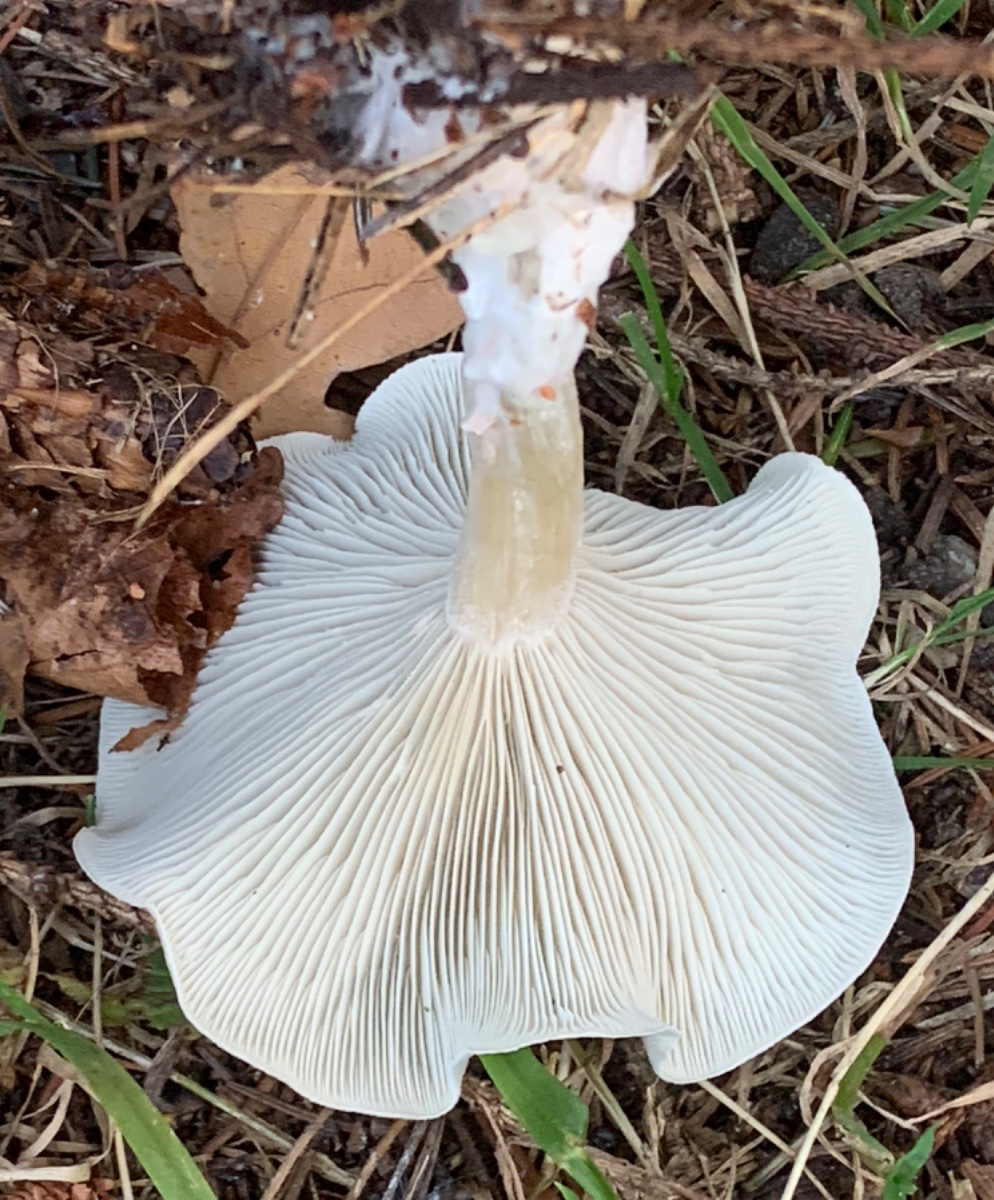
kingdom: Fungi
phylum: Basidiomycota
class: Agaricomycetes
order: Agaricales
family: Tricholomataceae
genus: Clitocybe
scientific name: Clitocybe odora
